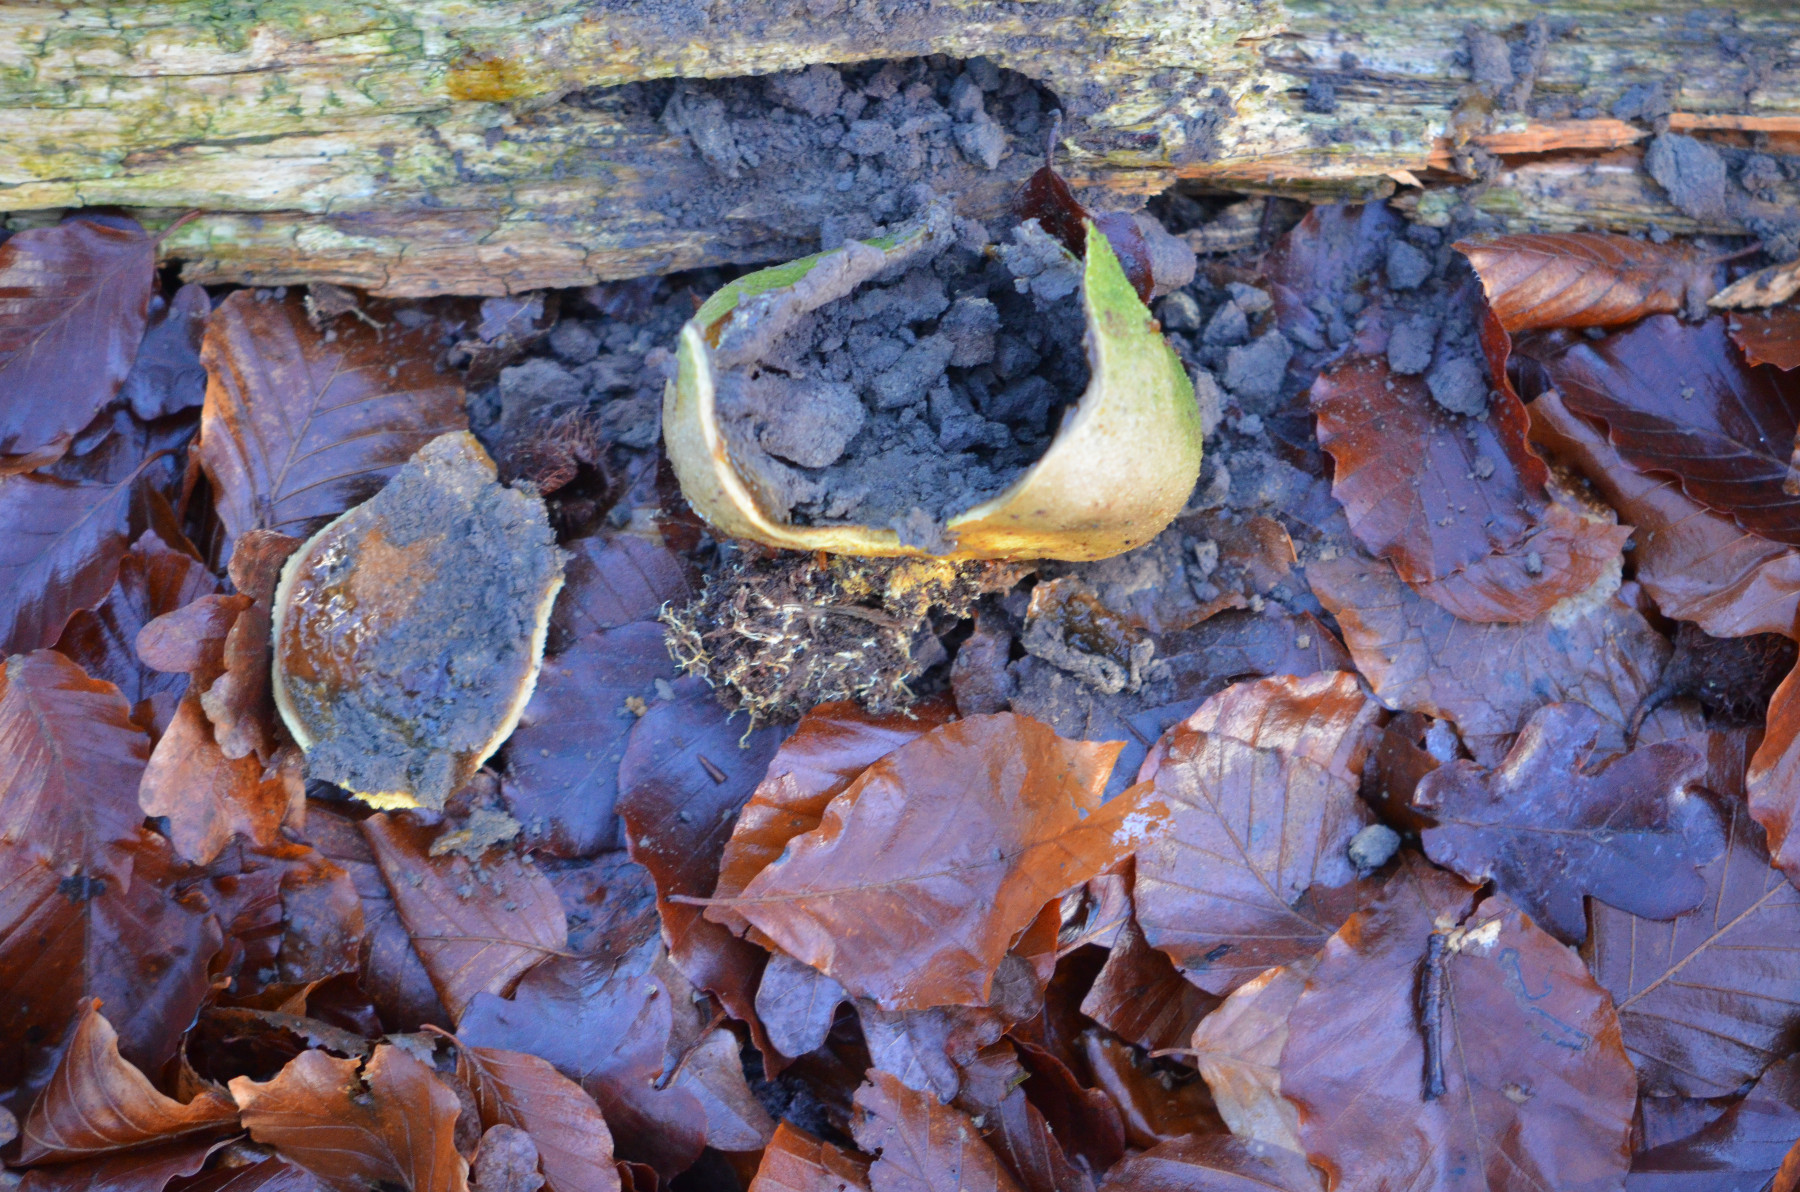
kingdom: Fungi
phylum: Basidiomycota
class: Agaricomycetes
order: Boletales
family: Sclerodermataceae
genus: Scleroderma
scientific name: Scleroderma
